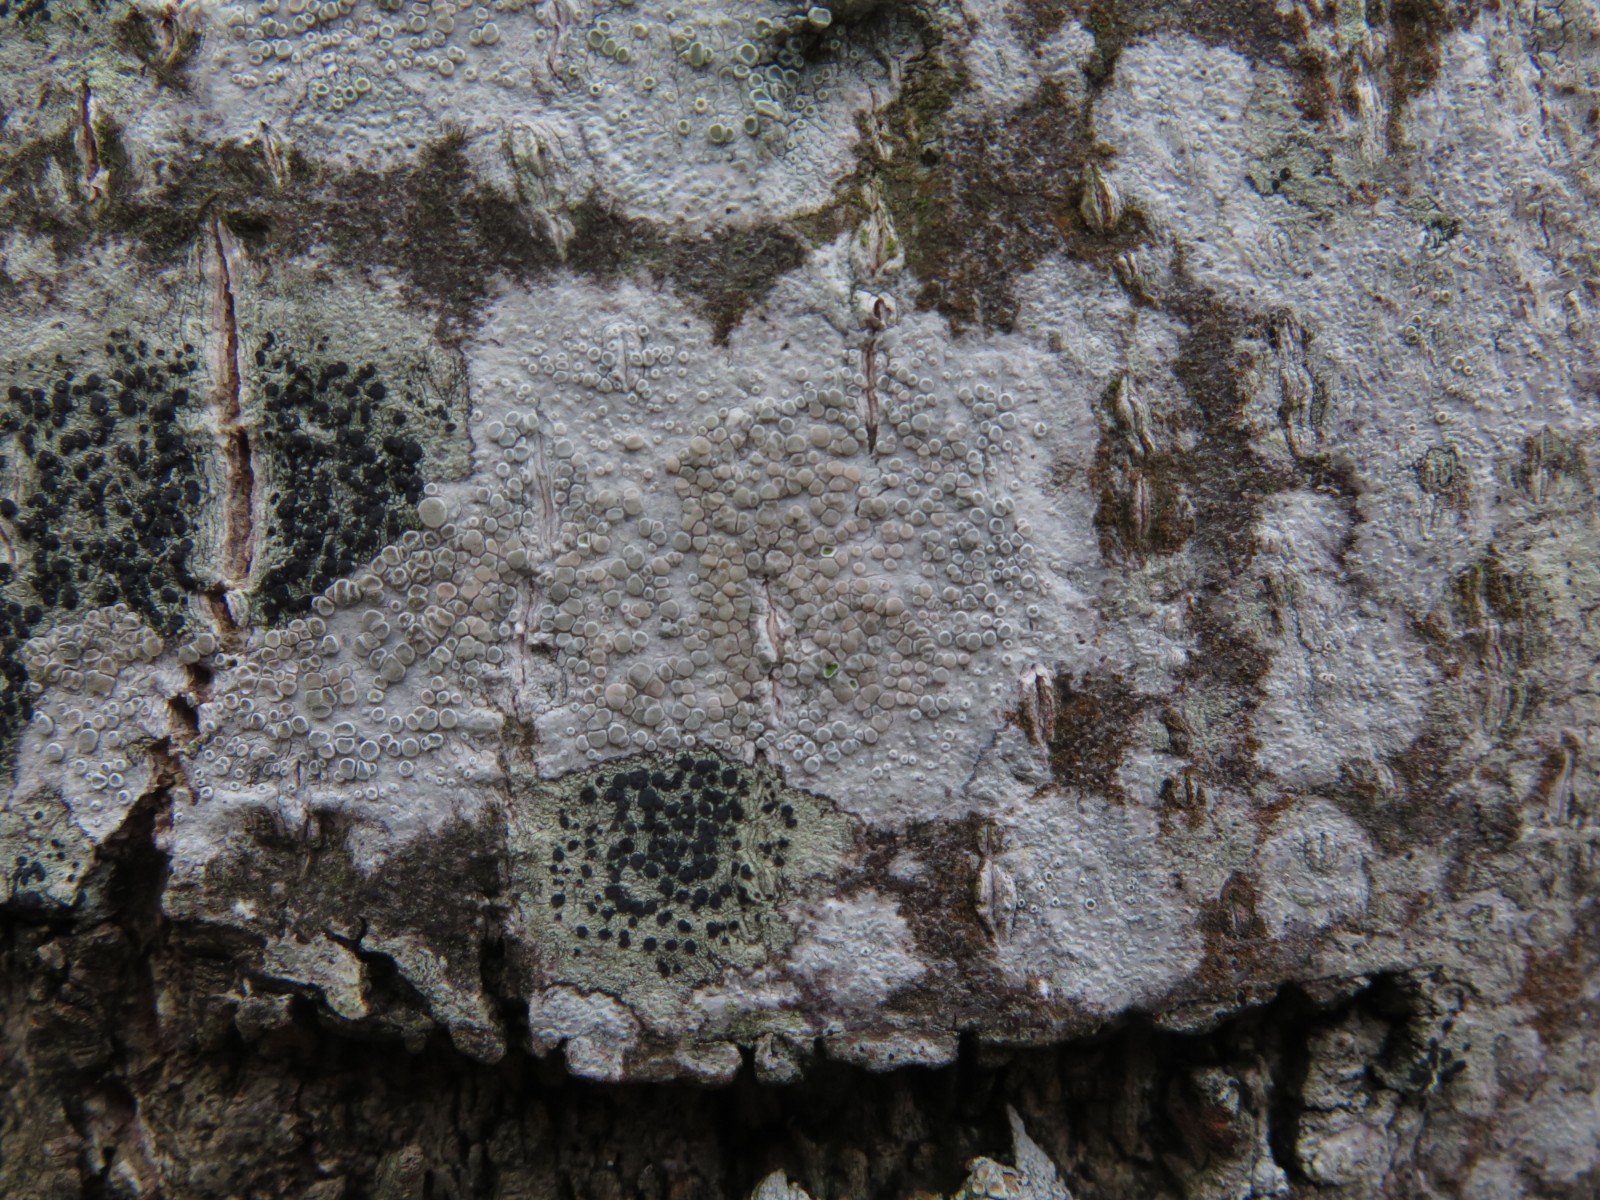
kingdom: Fungi
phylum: Ascomycota
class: Lecanoromycetes
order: Lecanorales
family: Lecanoraceae
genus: Glaucomaria
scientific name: Glaucomaria carpinea
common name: hviddugget kantskivelav
